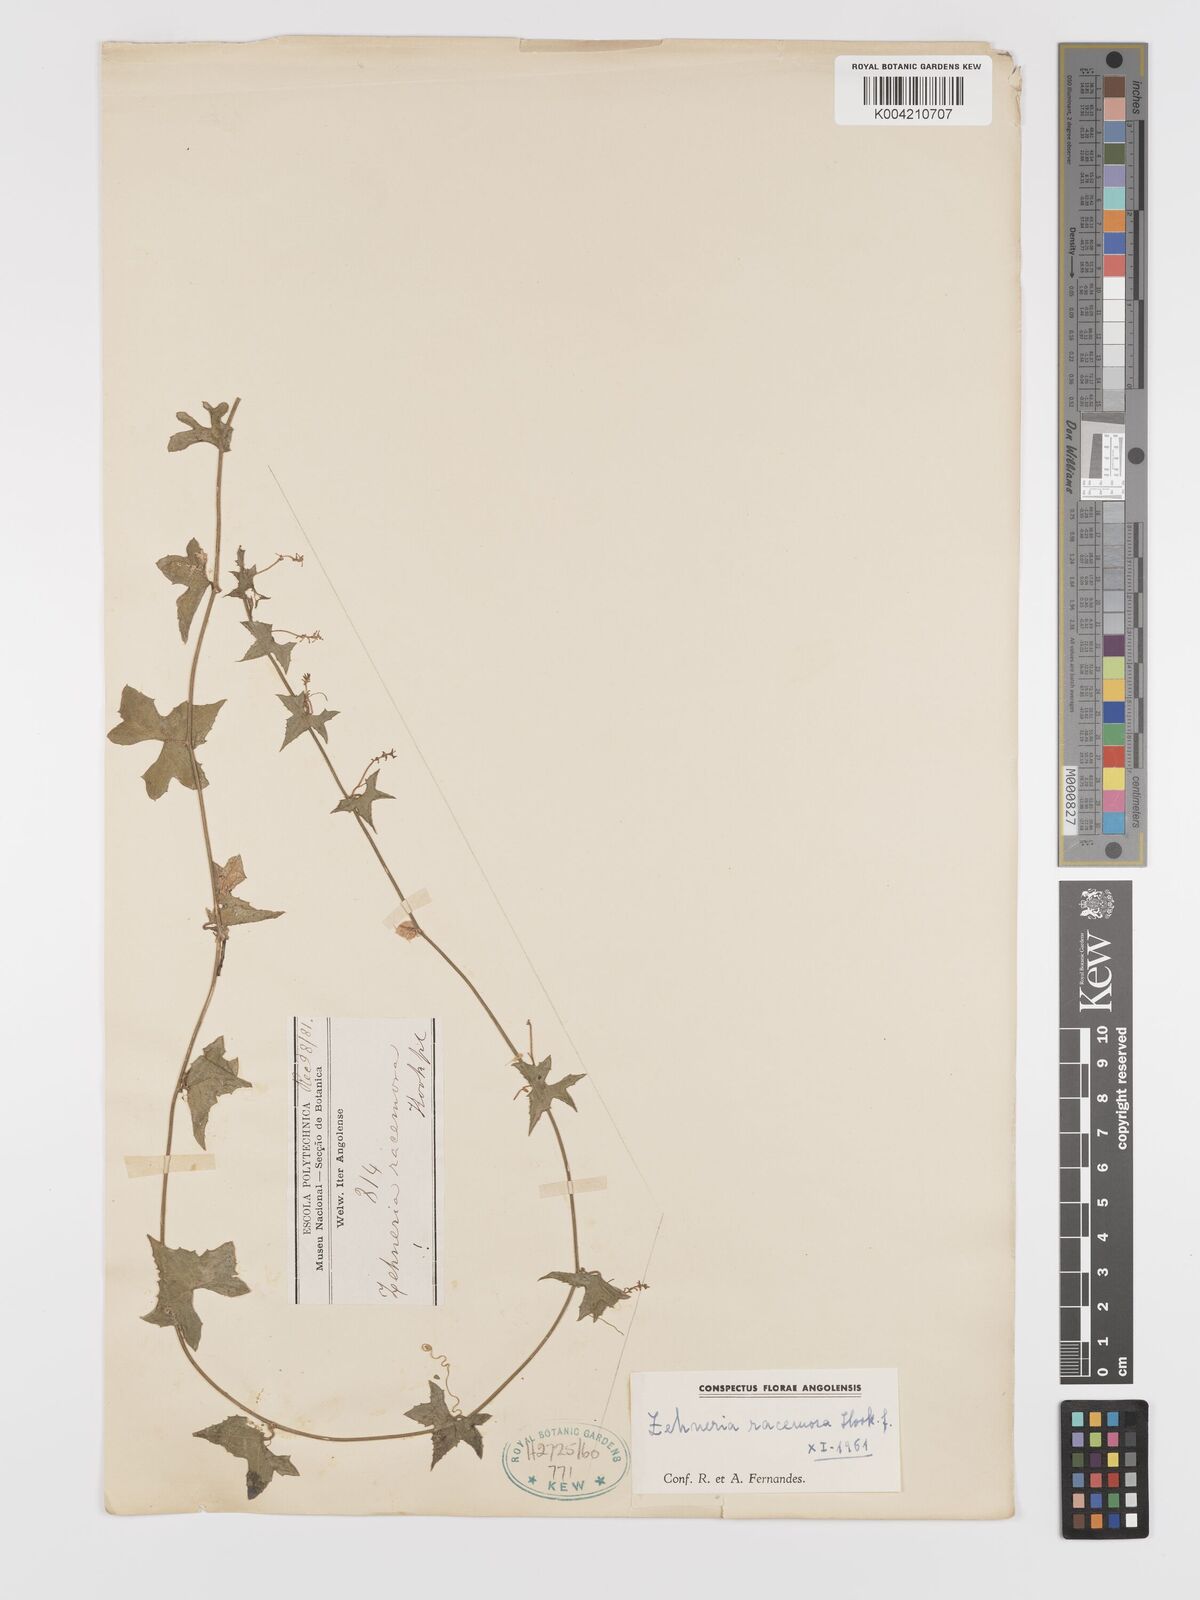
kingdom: Plantae
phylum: Tracheophyta
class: Magnoliopsida
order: Cucurbitales
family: Cucurbitaceae
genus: Zehneria
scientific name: Zehneria racemosa
